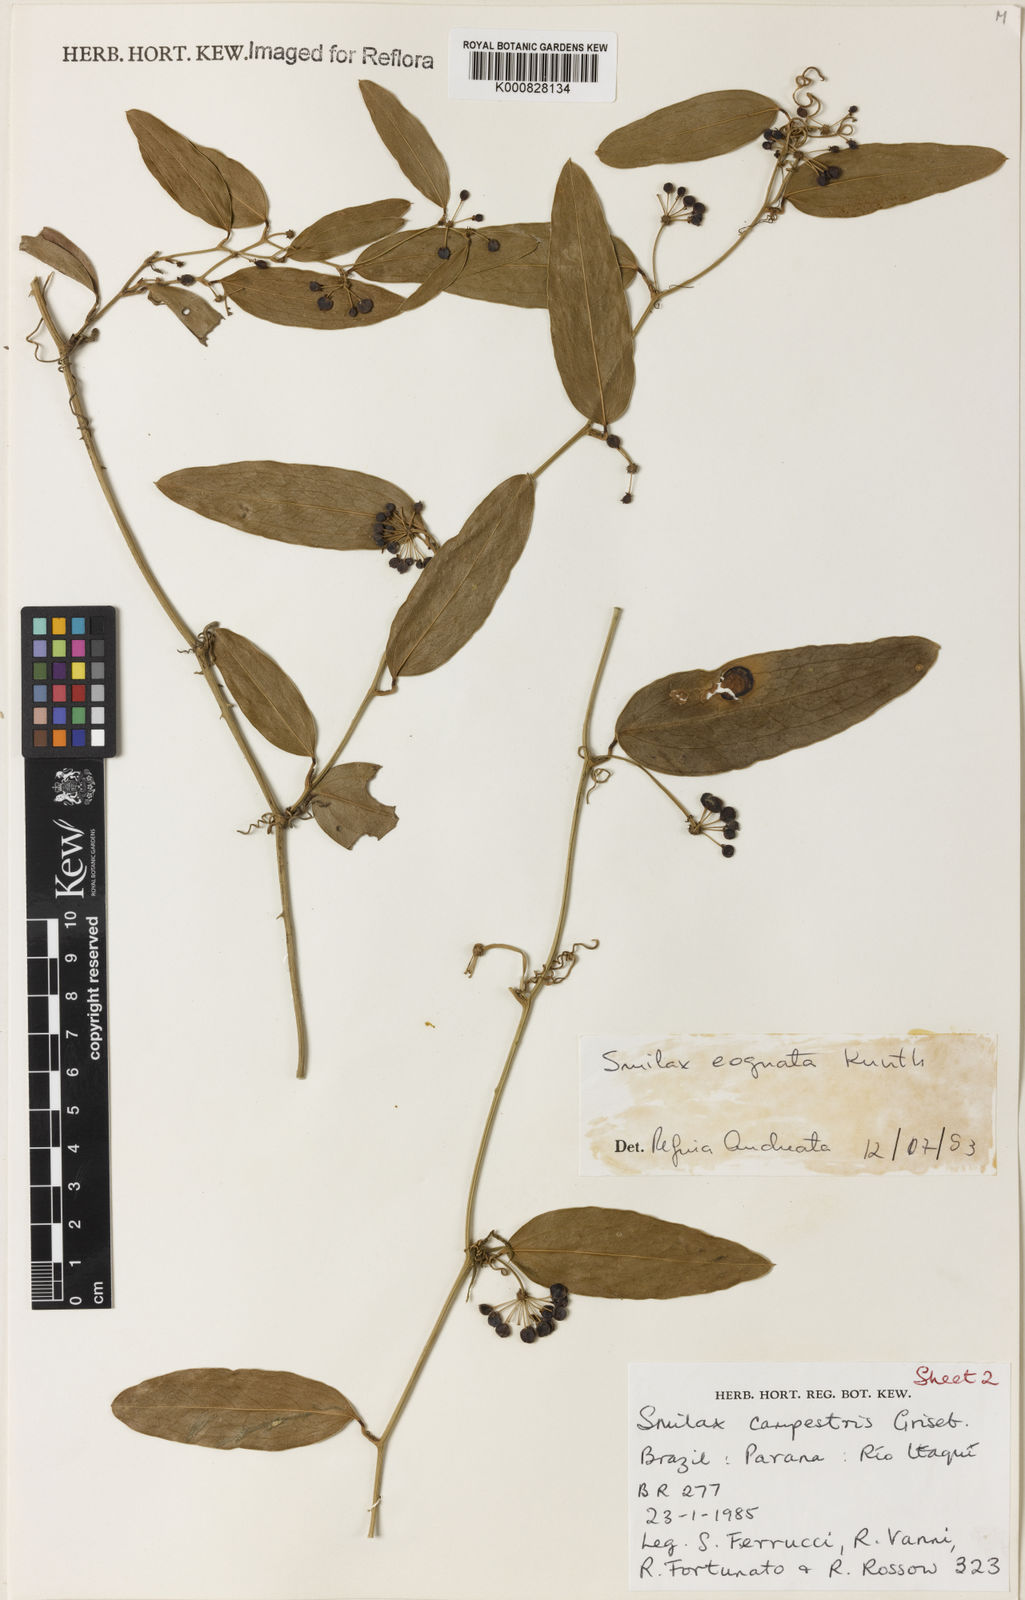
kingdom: Plantae
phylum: Tracheophyta
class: Liliopsida
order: Liliales
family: Smilacaceae
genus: Smilax
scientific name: Smilax cognata
